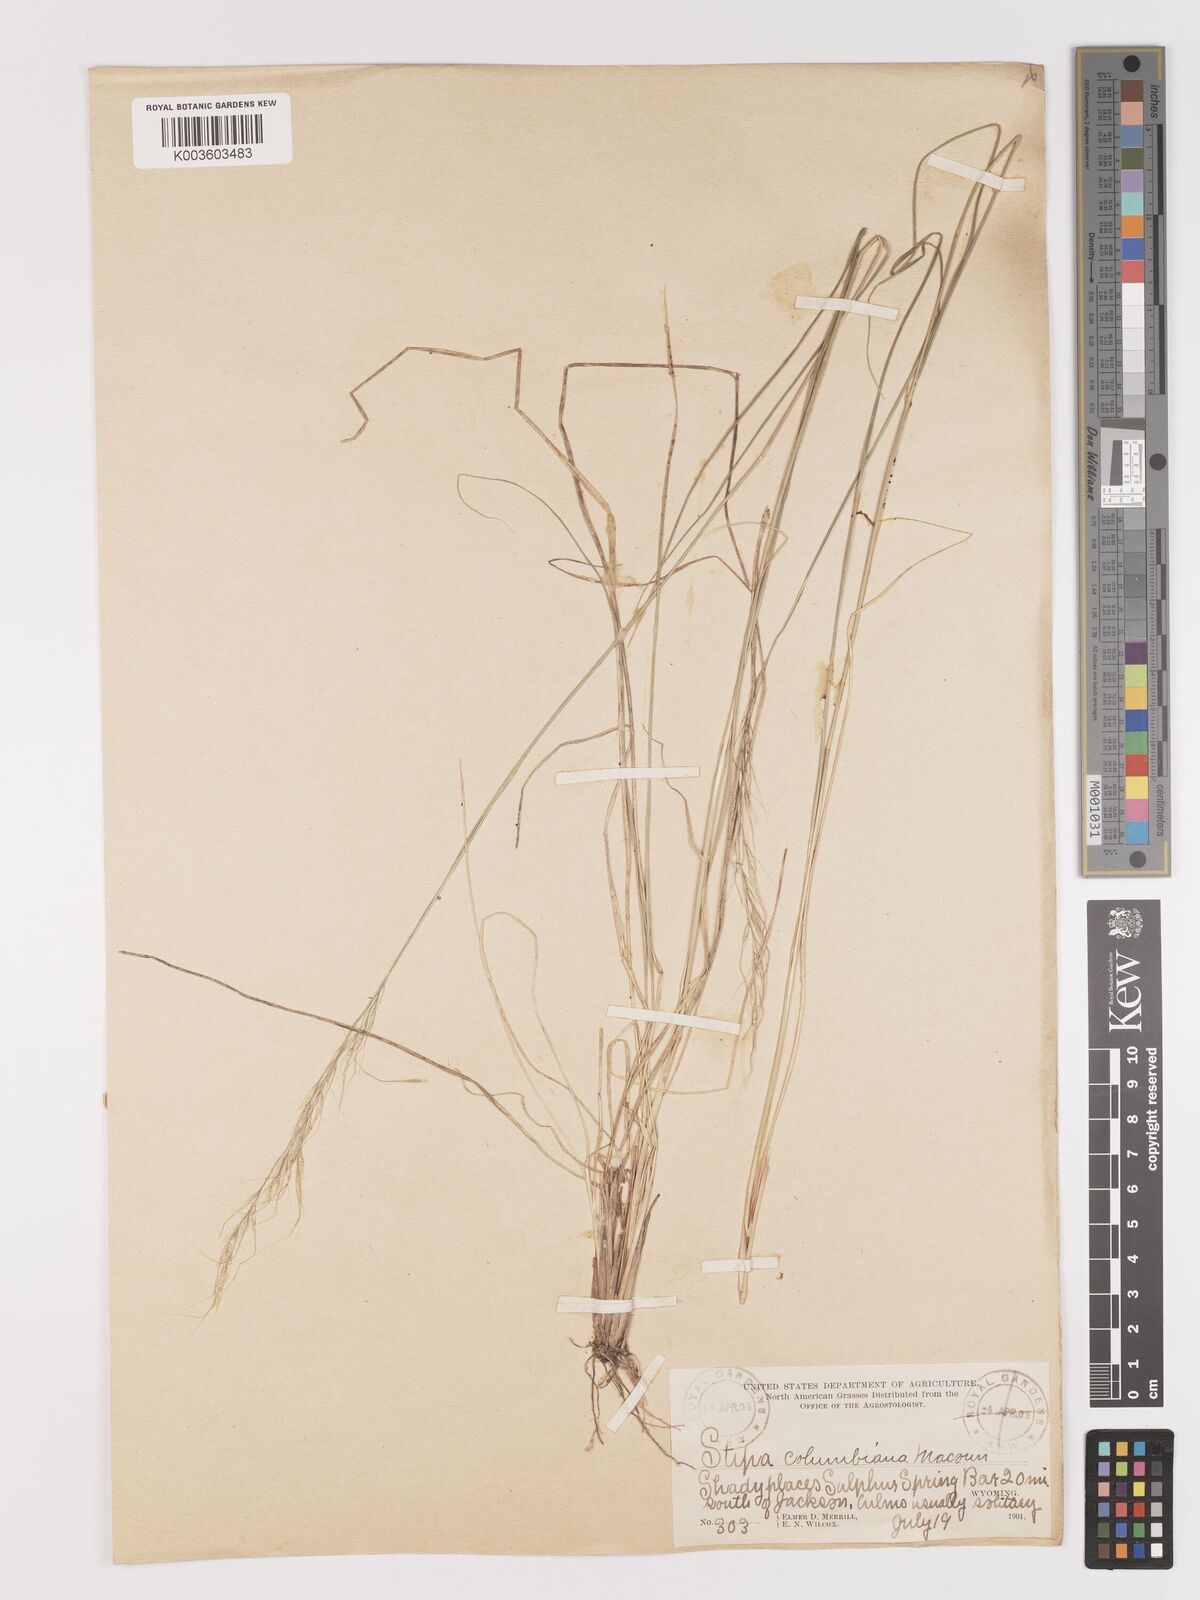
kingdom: Plantae
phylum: Tracheophyta
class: Liliopsida
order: Poales
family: Poaceae
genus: Eriocoma
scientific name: Eriocoma nelsonii
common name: Nelson's needlegrass
